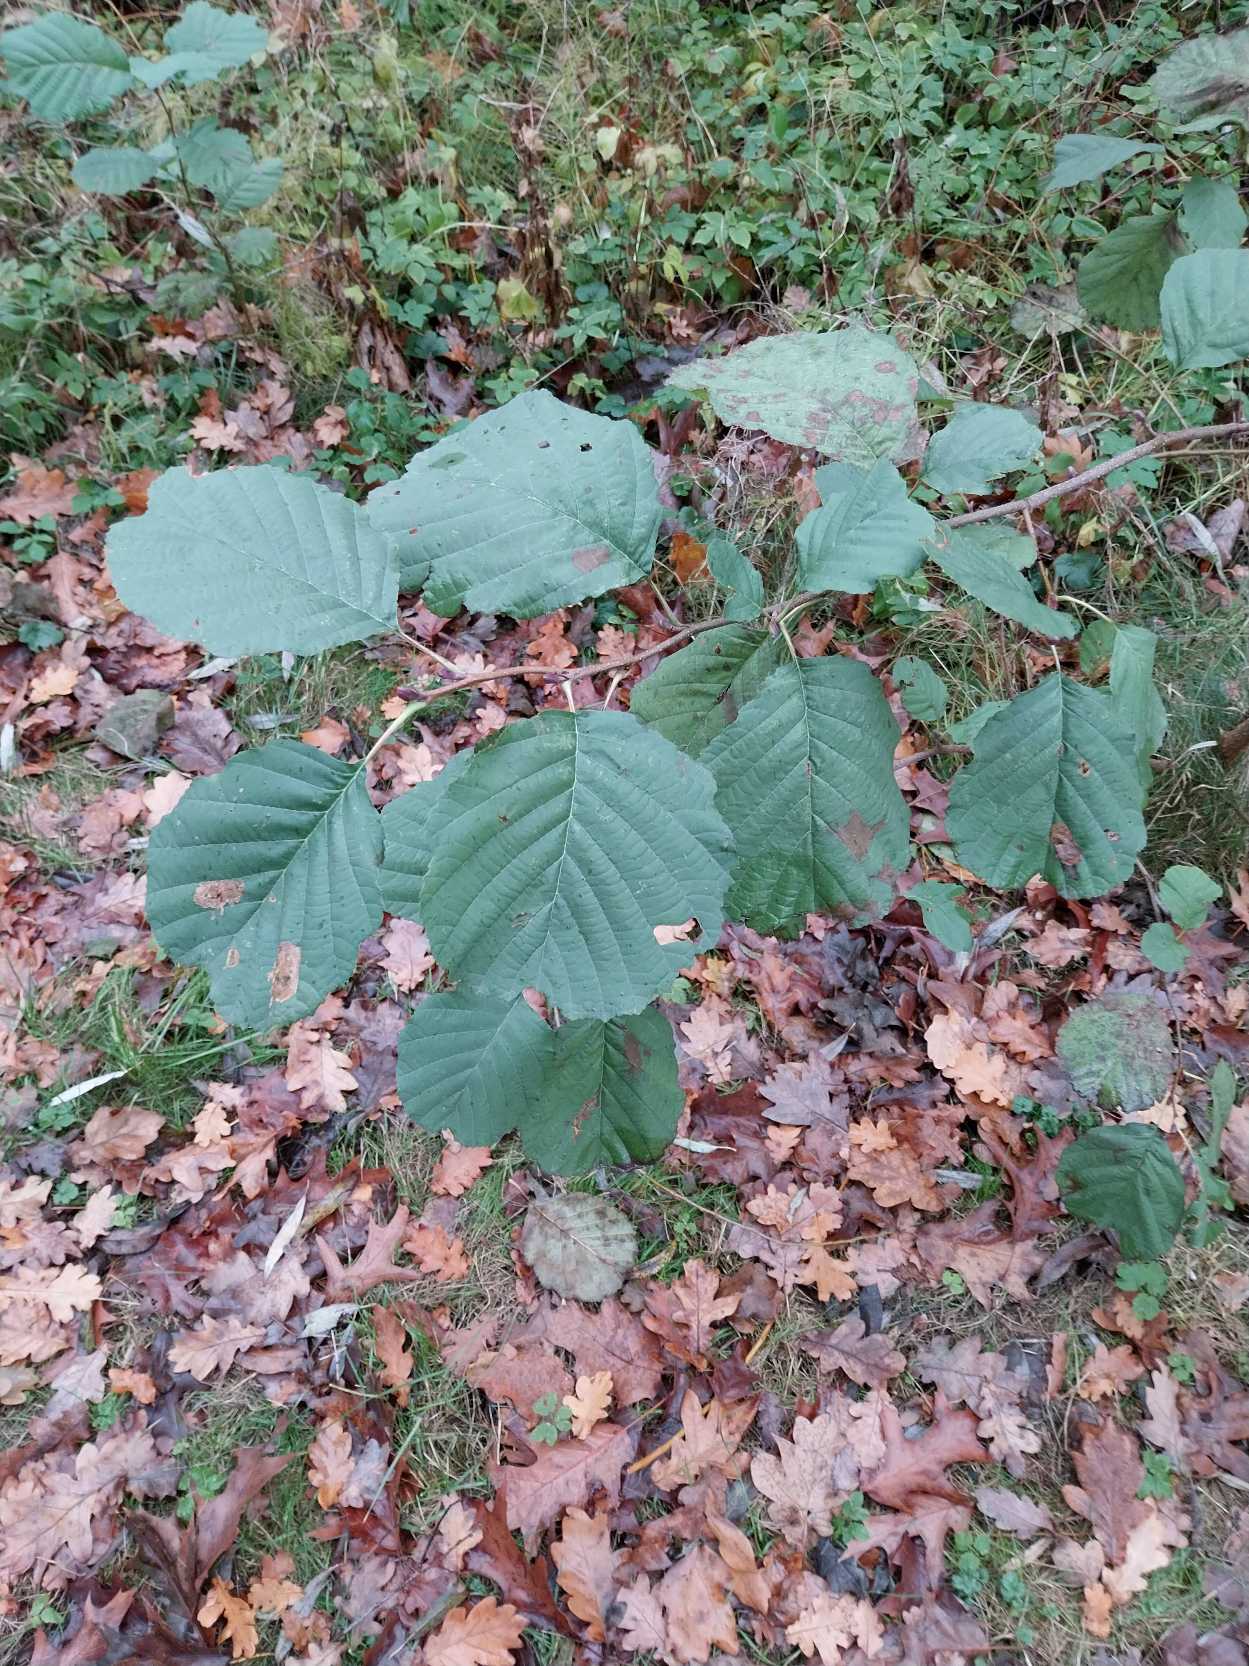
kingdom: Plantae
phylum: Tracheophyta
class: Magnoliopsida
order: Fagales
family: Betulaceae
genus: Alnus
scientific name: Alnus glutinosa
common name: Rød-el
